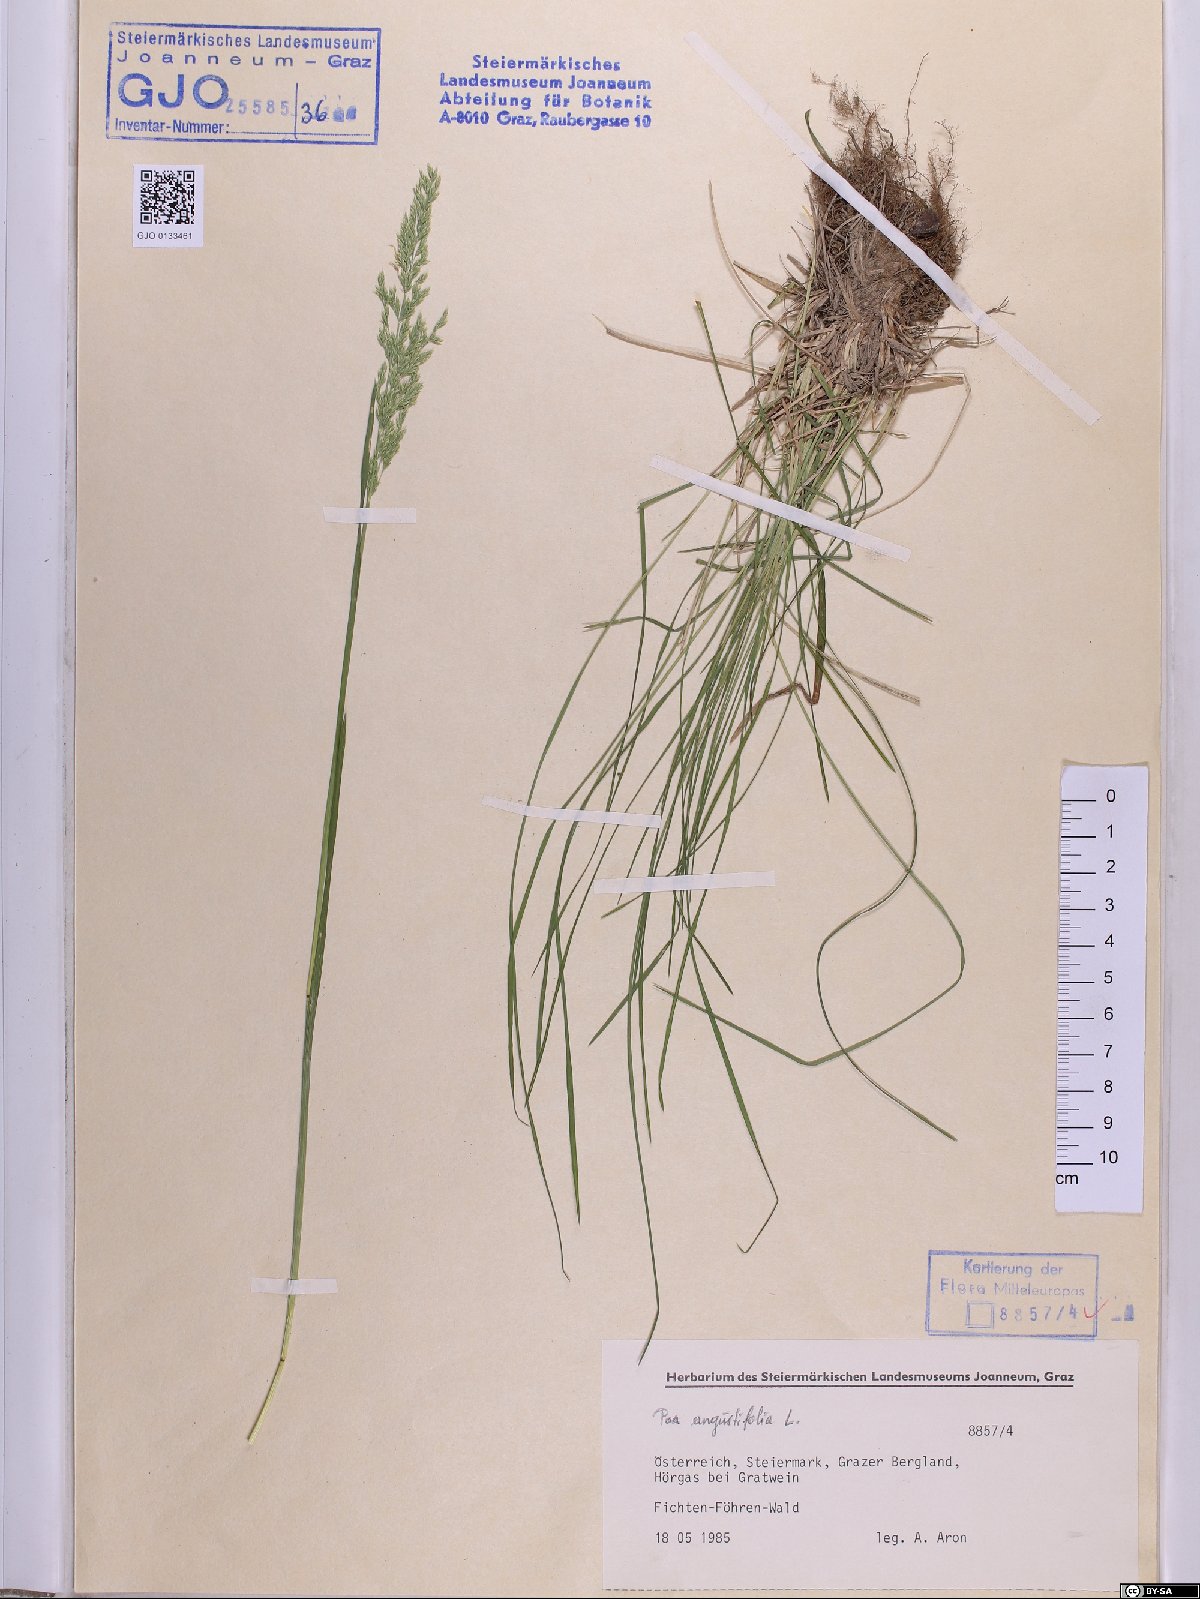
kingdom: Plantae
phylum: Tracheophyta
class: Liliopsida
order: Poales
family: Poaceae
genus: Poa
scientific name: Poa angustifolia
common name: Narrow-leaved meadow-grass
